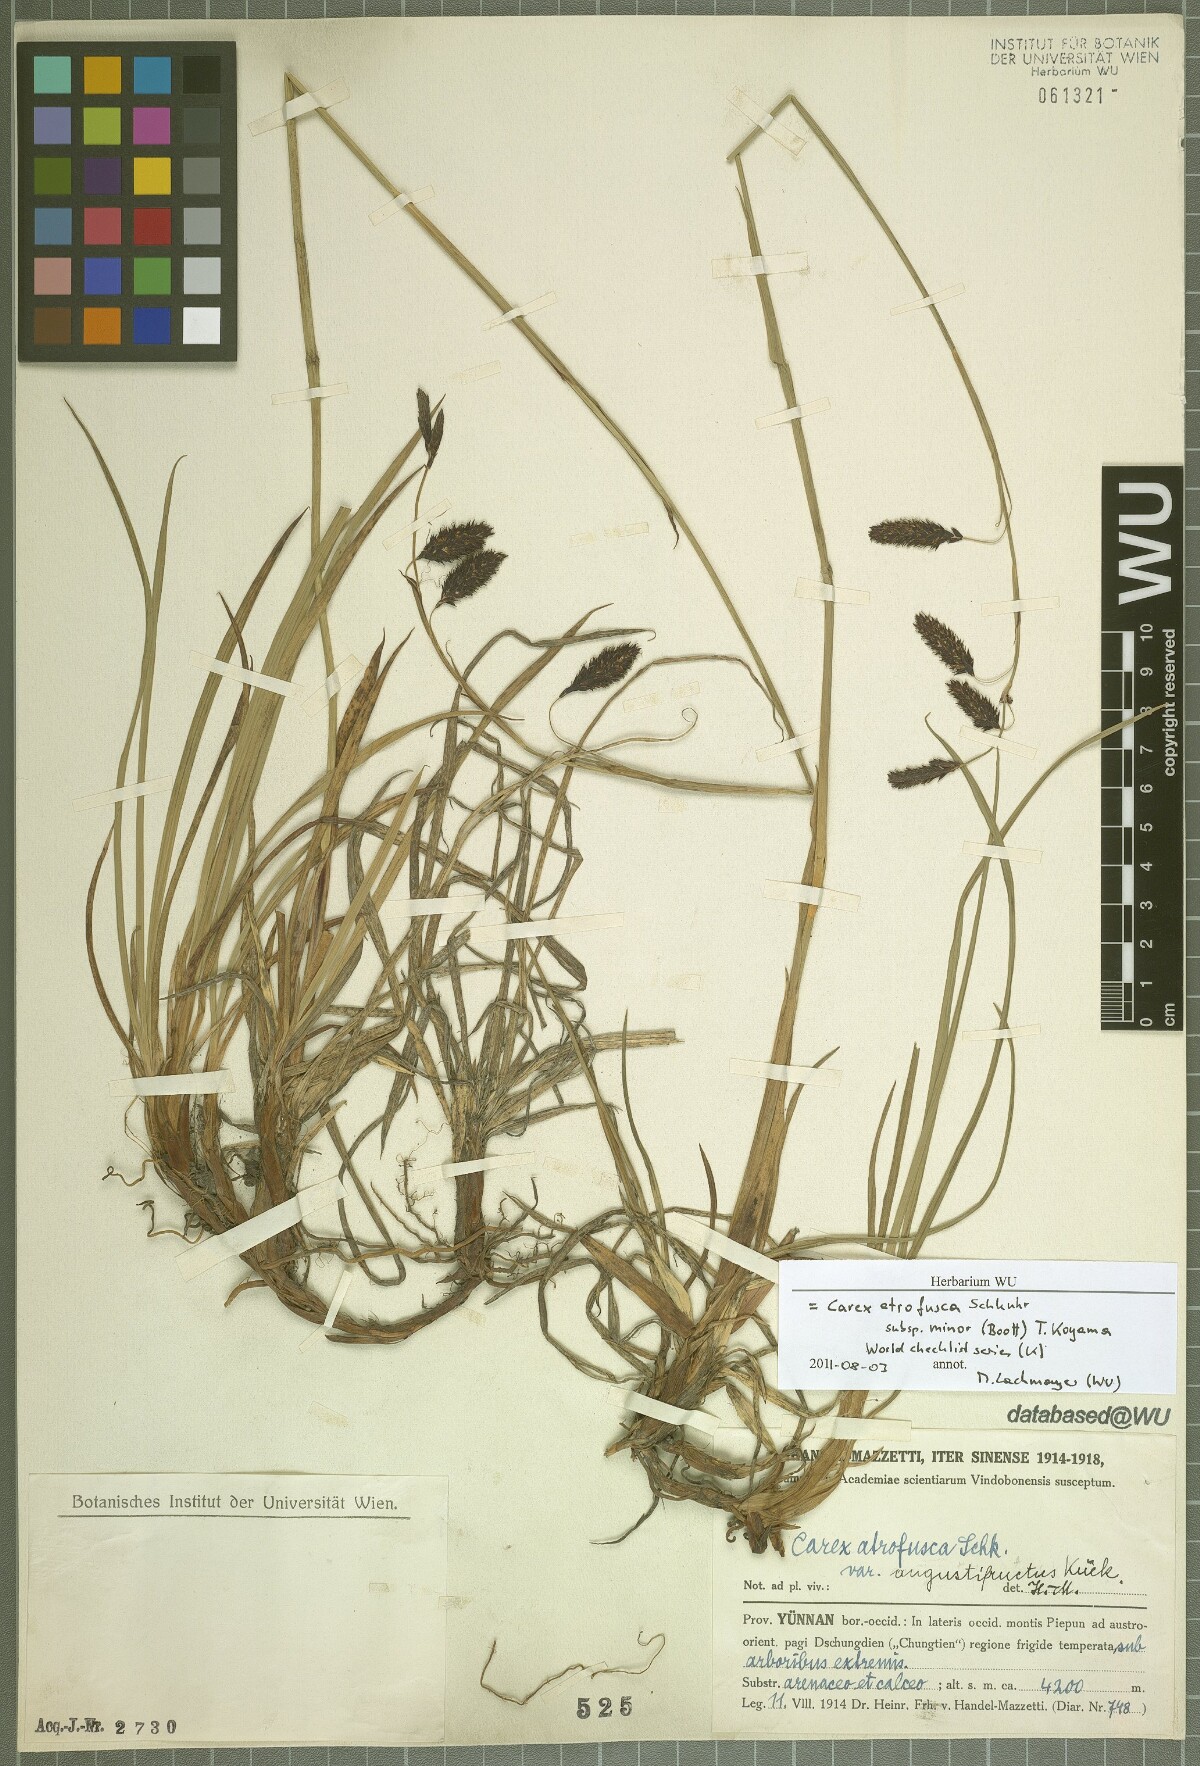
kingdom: Plantae
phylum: Tracheophyta
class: Liliopsida
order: Poales
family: Cyperaceae
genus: Carex
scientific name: Carex atrofusca
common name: Scorched alpine-sedge
